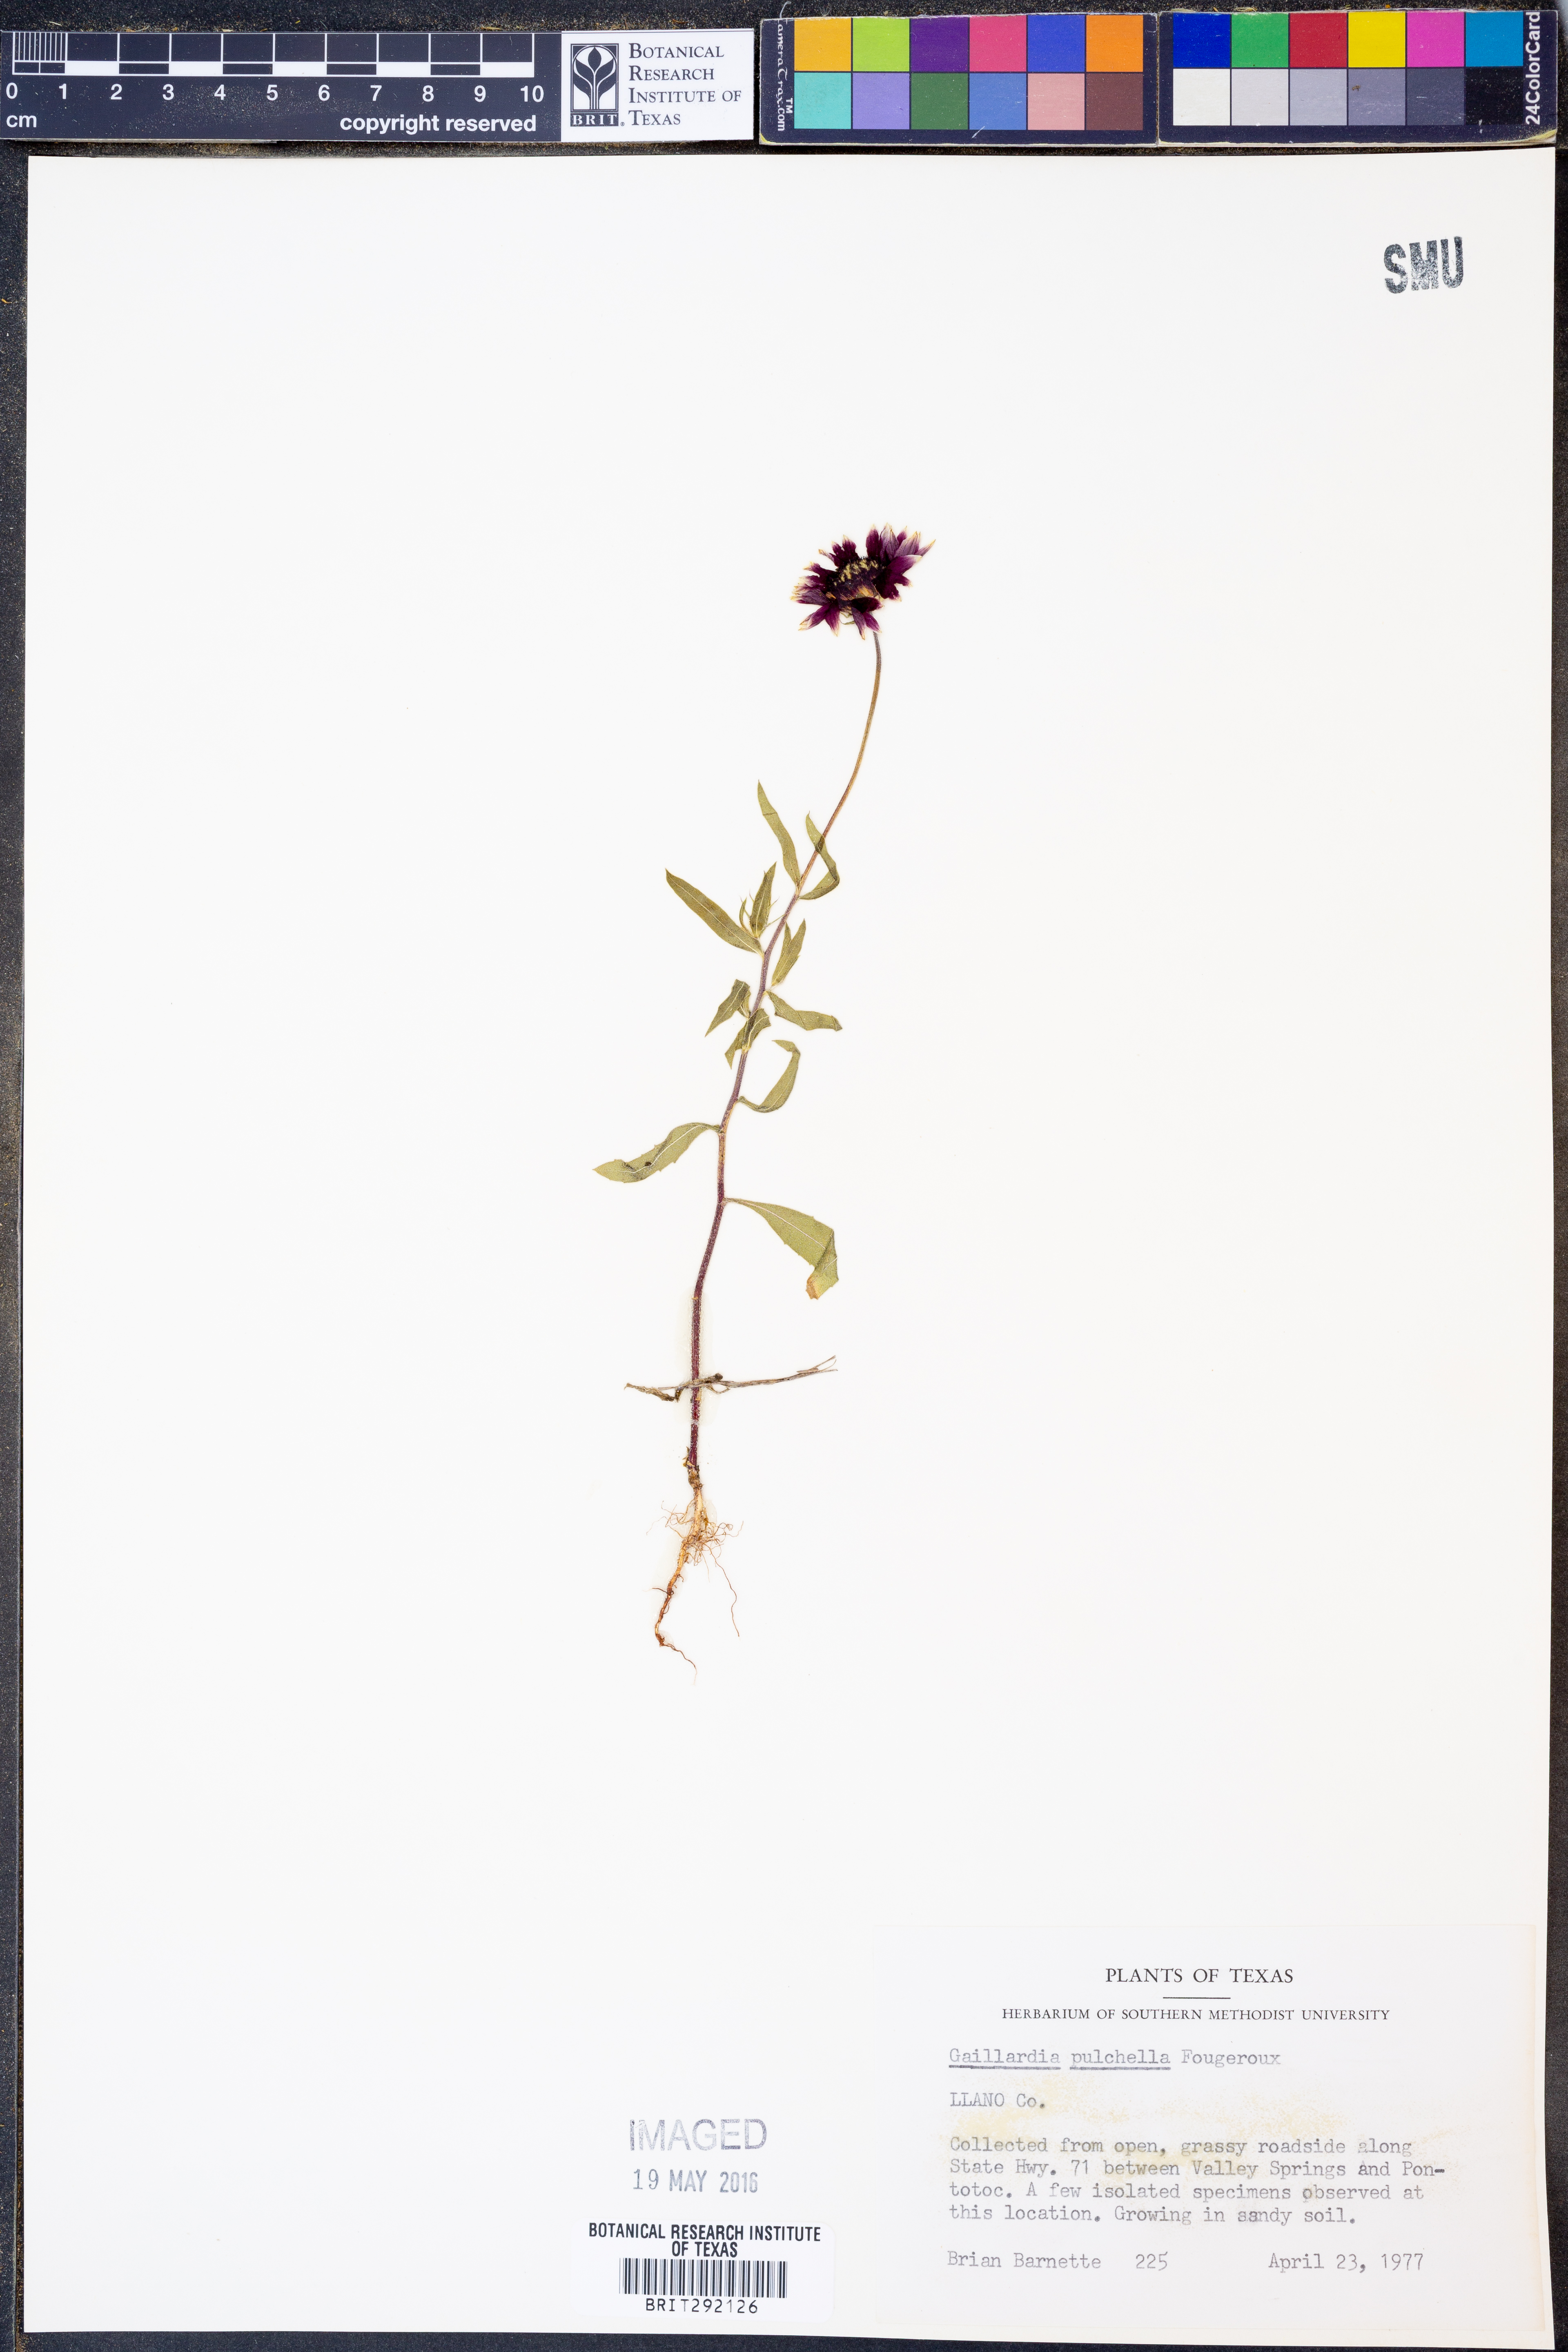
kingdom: Plantae
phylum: Tracheophyta
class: Magnoliopsida
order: Asterales
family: Asteraceae
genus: Gaillardia
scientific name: Gaillardia pulchella
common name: Firewheel
